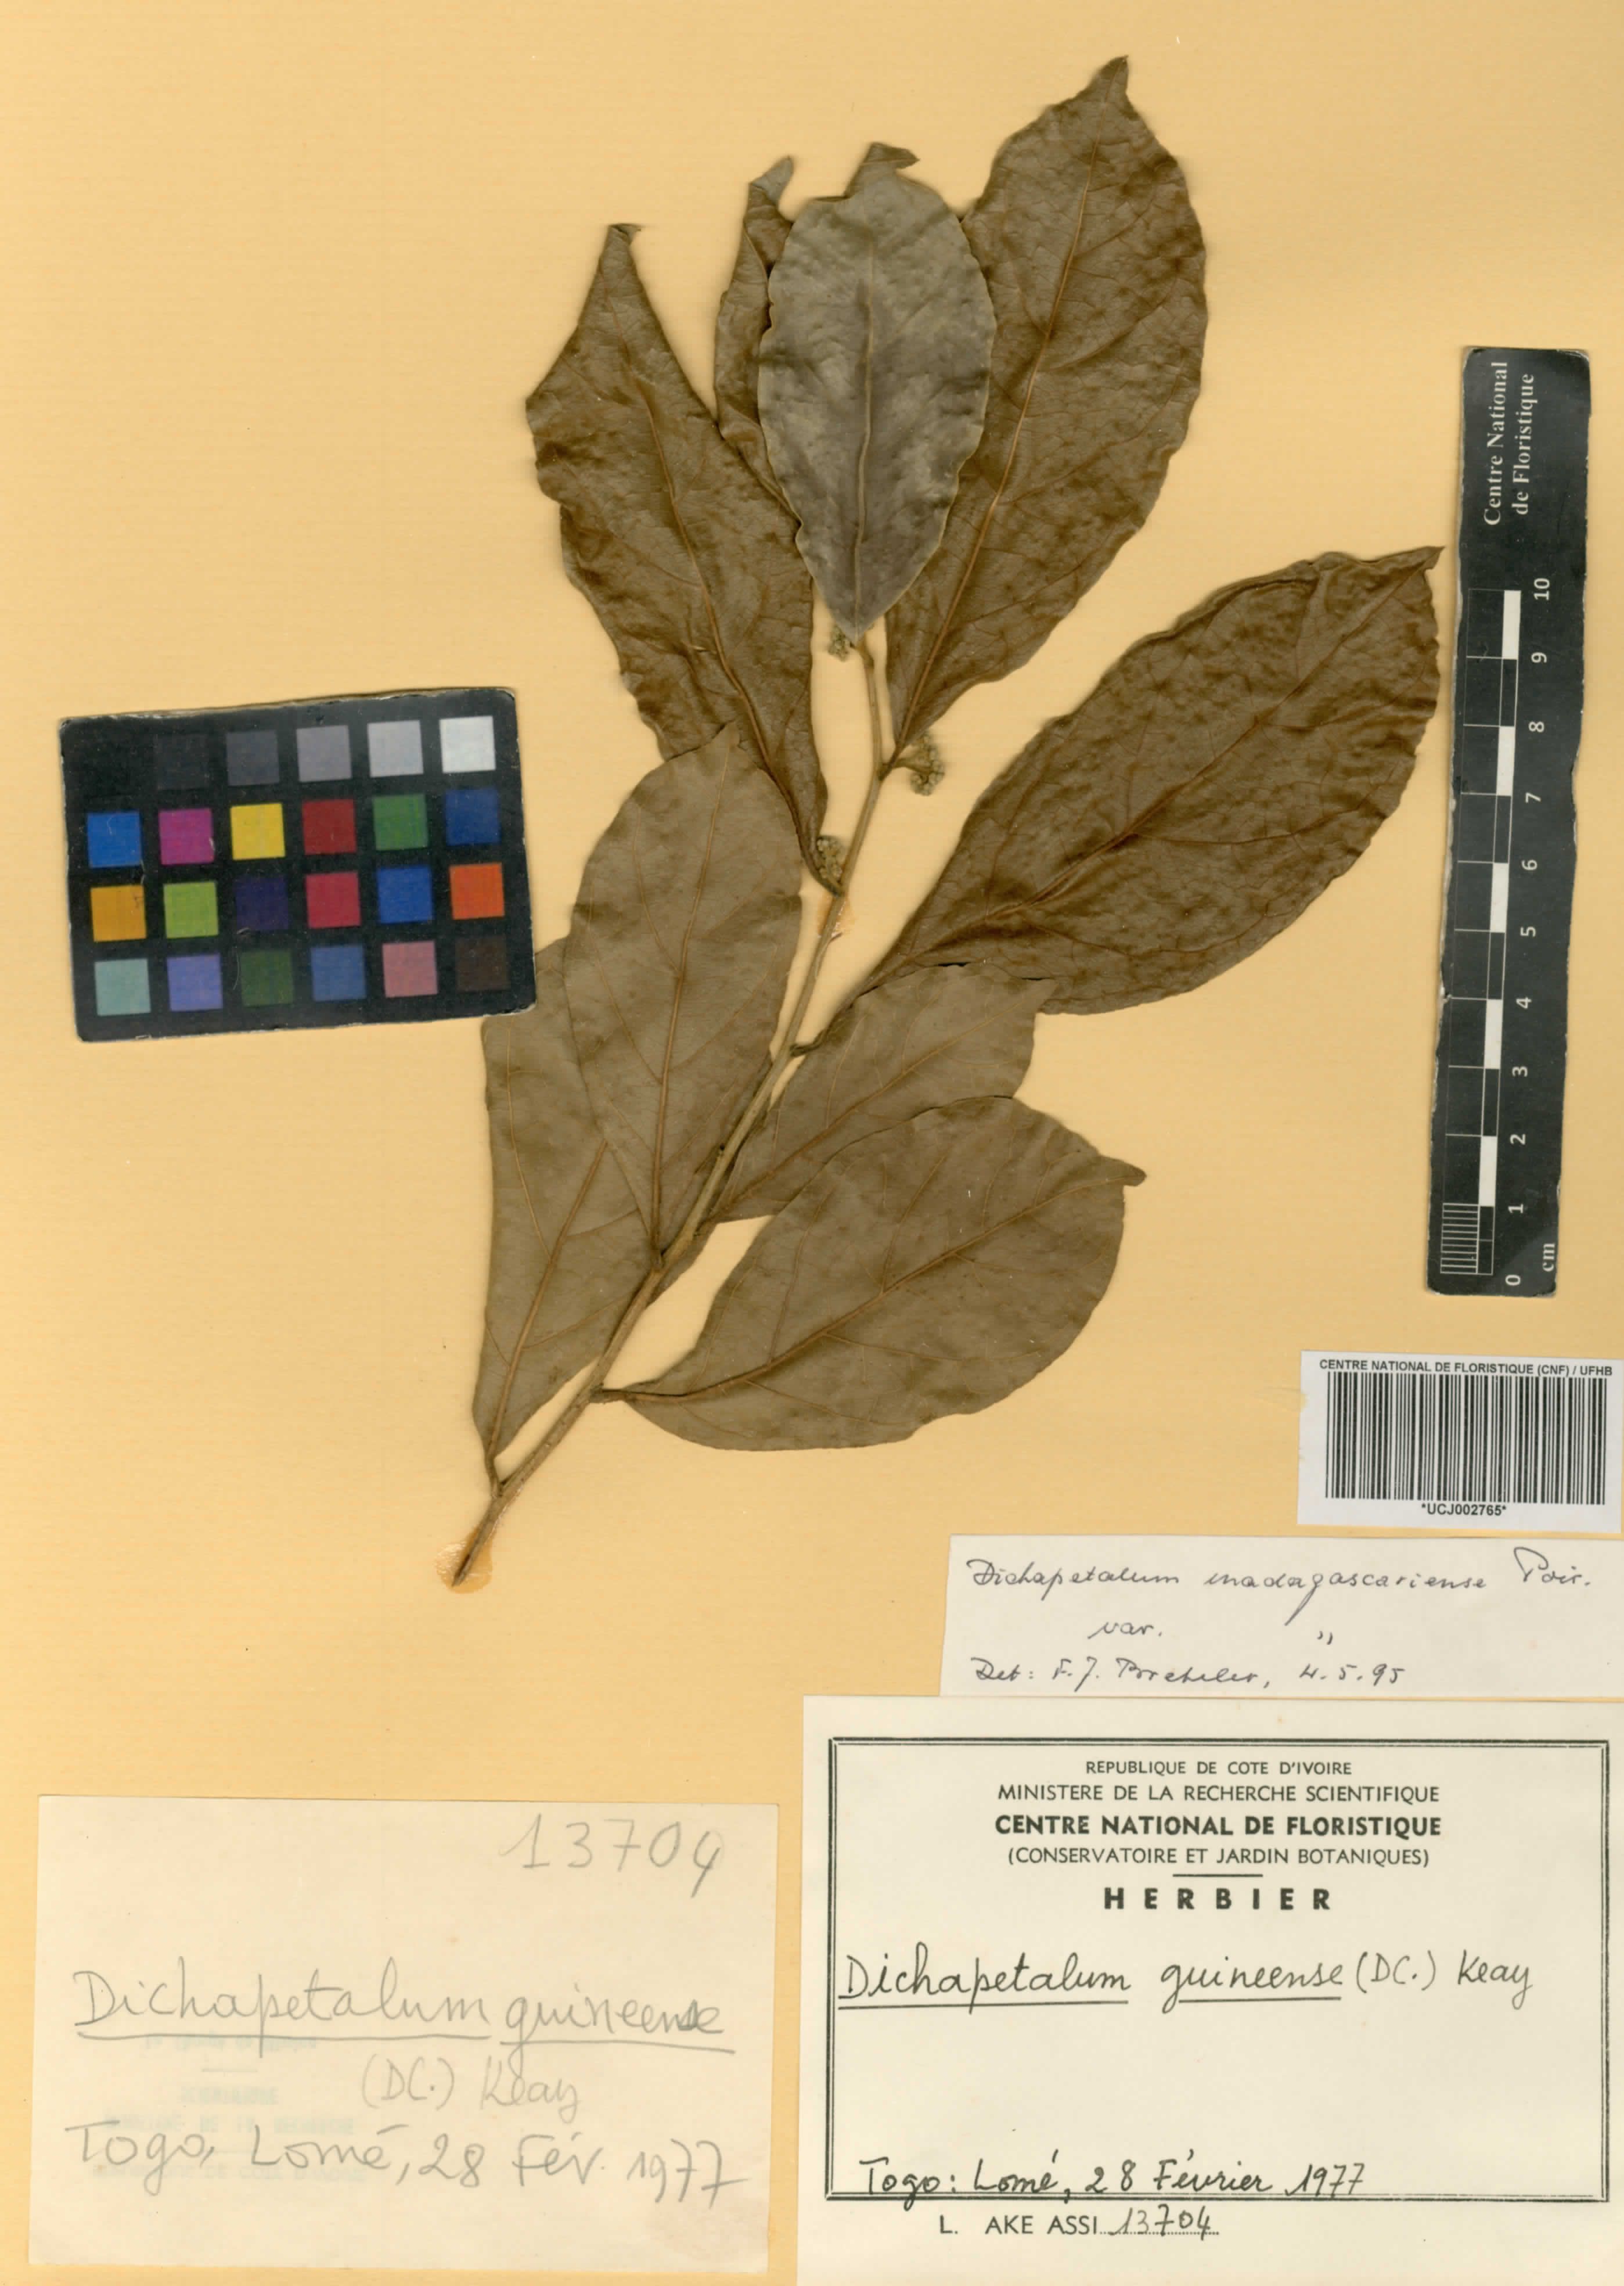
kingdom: Plantae
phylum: Tracheophyta
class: Magnoliopsida
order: Malpighiales
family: Dichapetalaceae
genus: Dichapetalum
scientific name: Dichapetalum madagascariense
